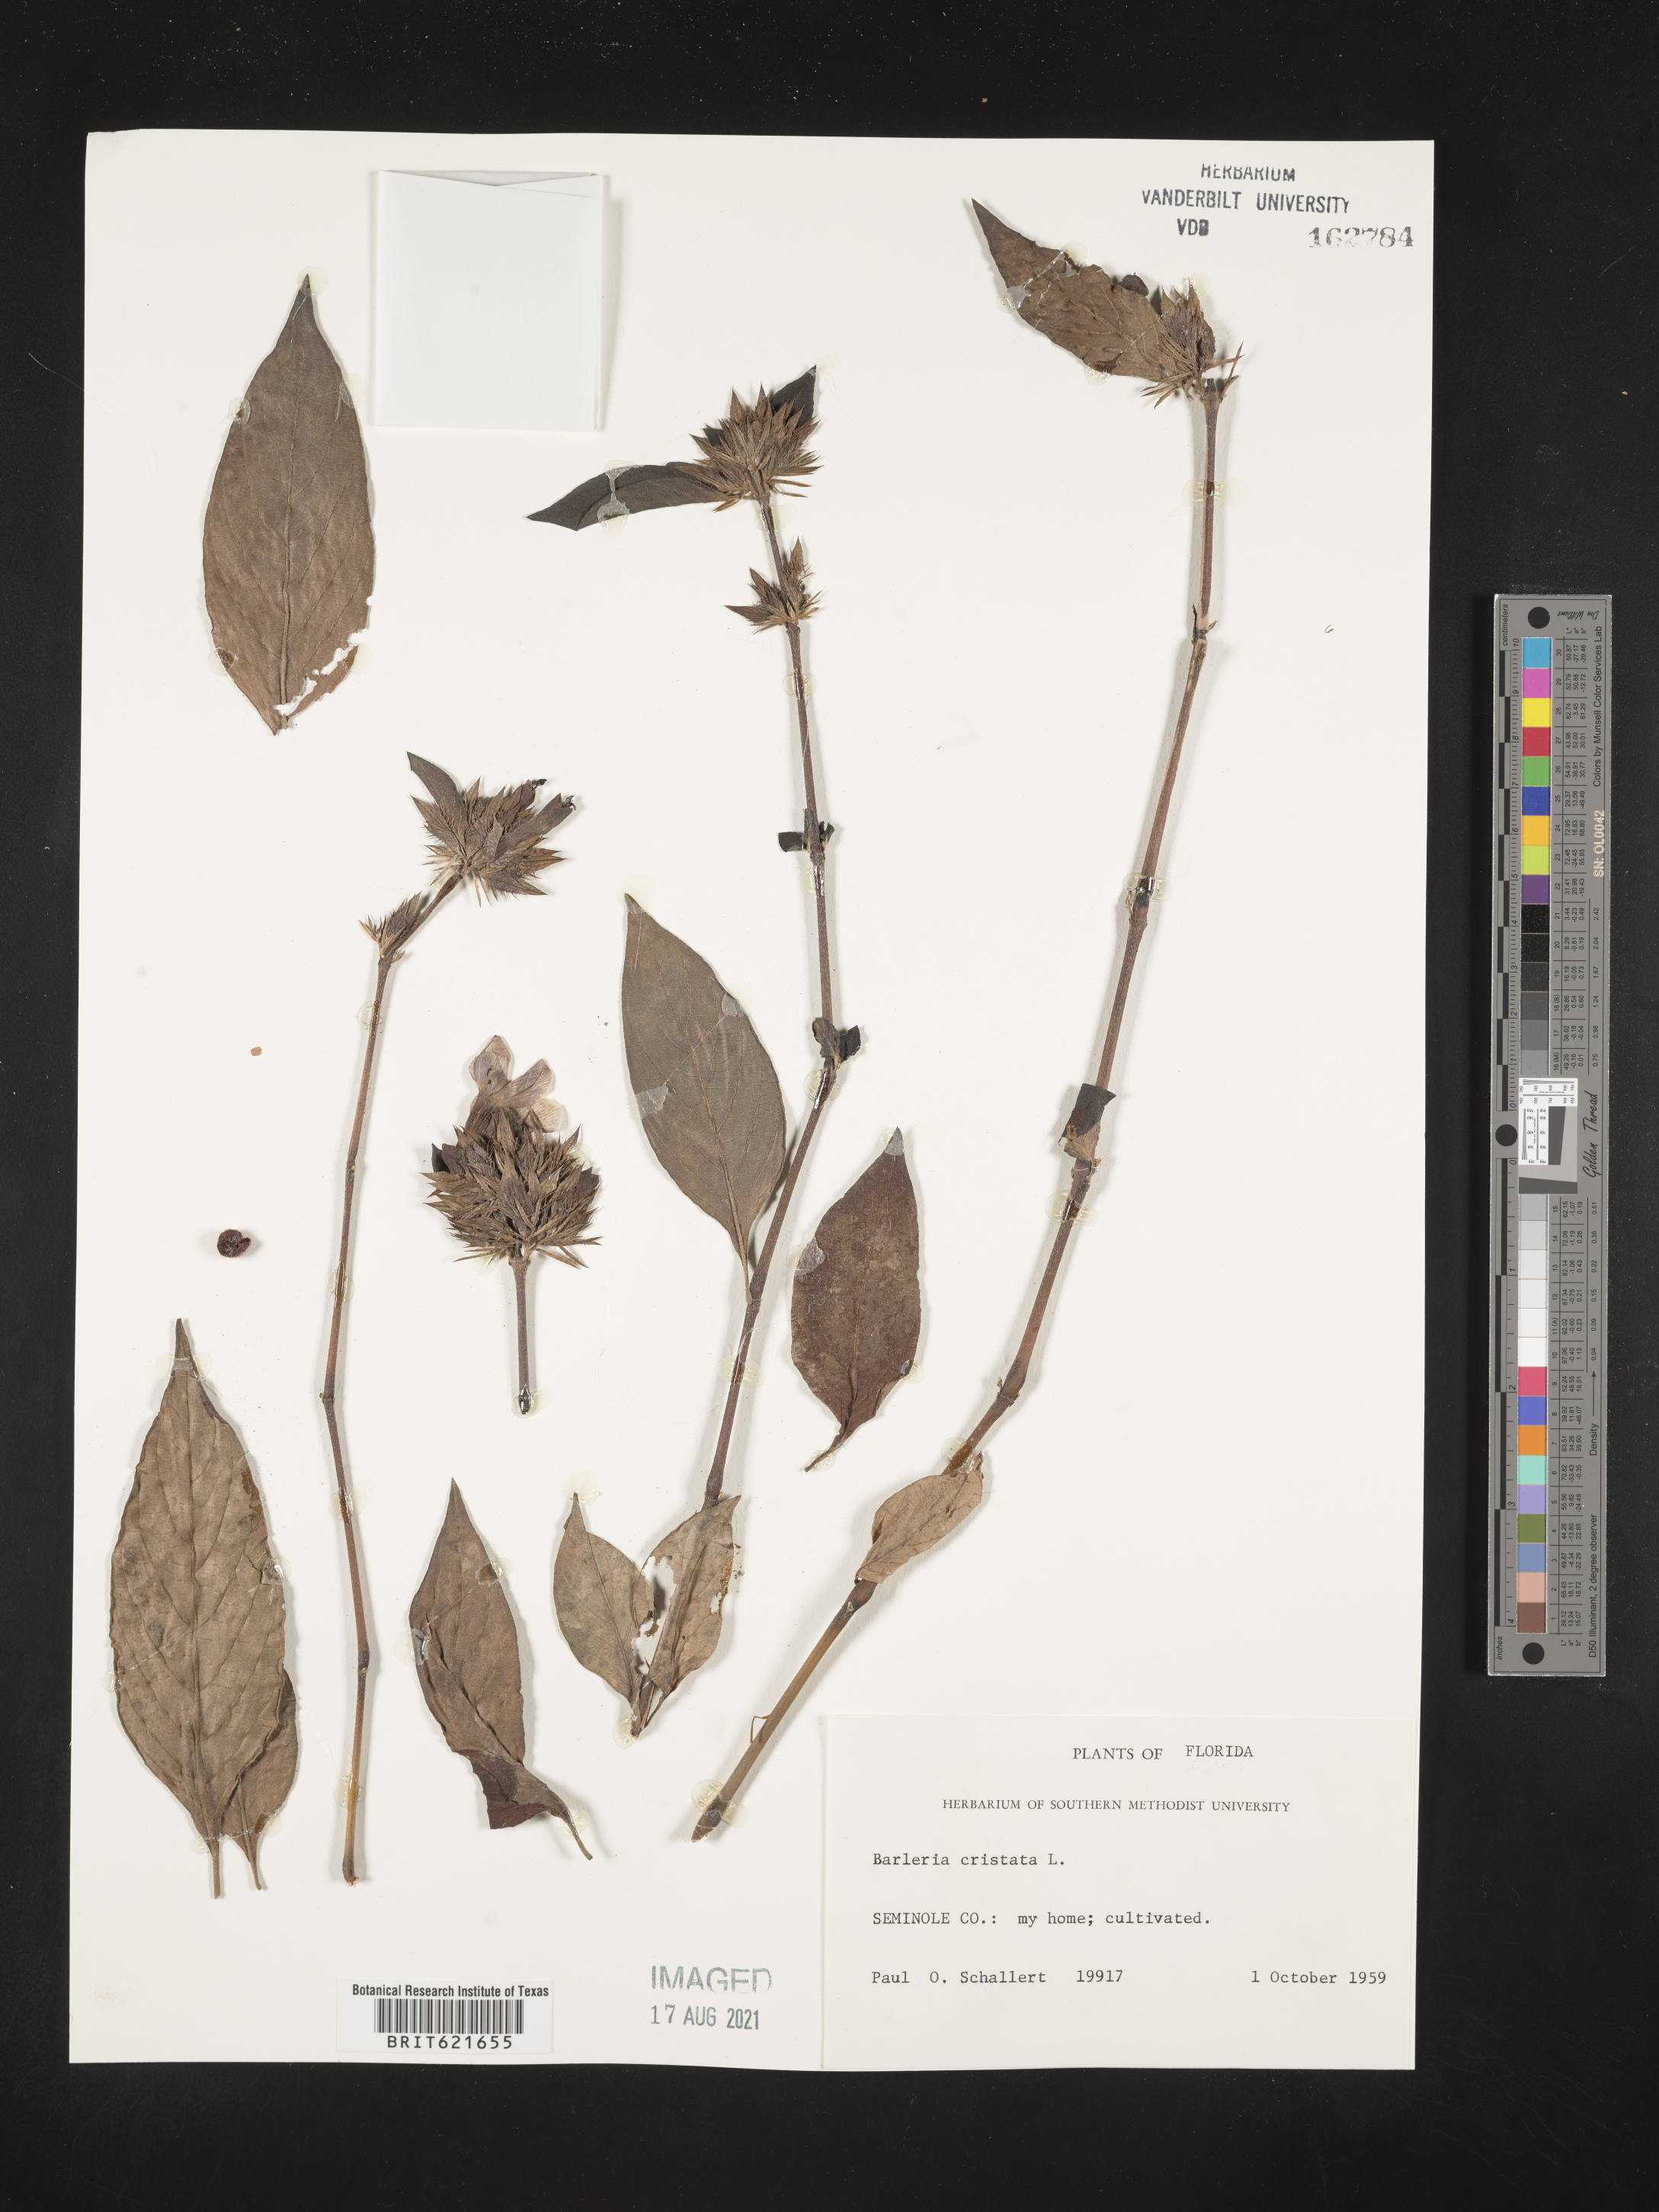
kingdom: Plantae
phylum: Tracheophyta
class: Magnoliopsida
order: Lamiales
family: Acanthaceae
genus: Barleria
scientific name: Barleria noctiflora
